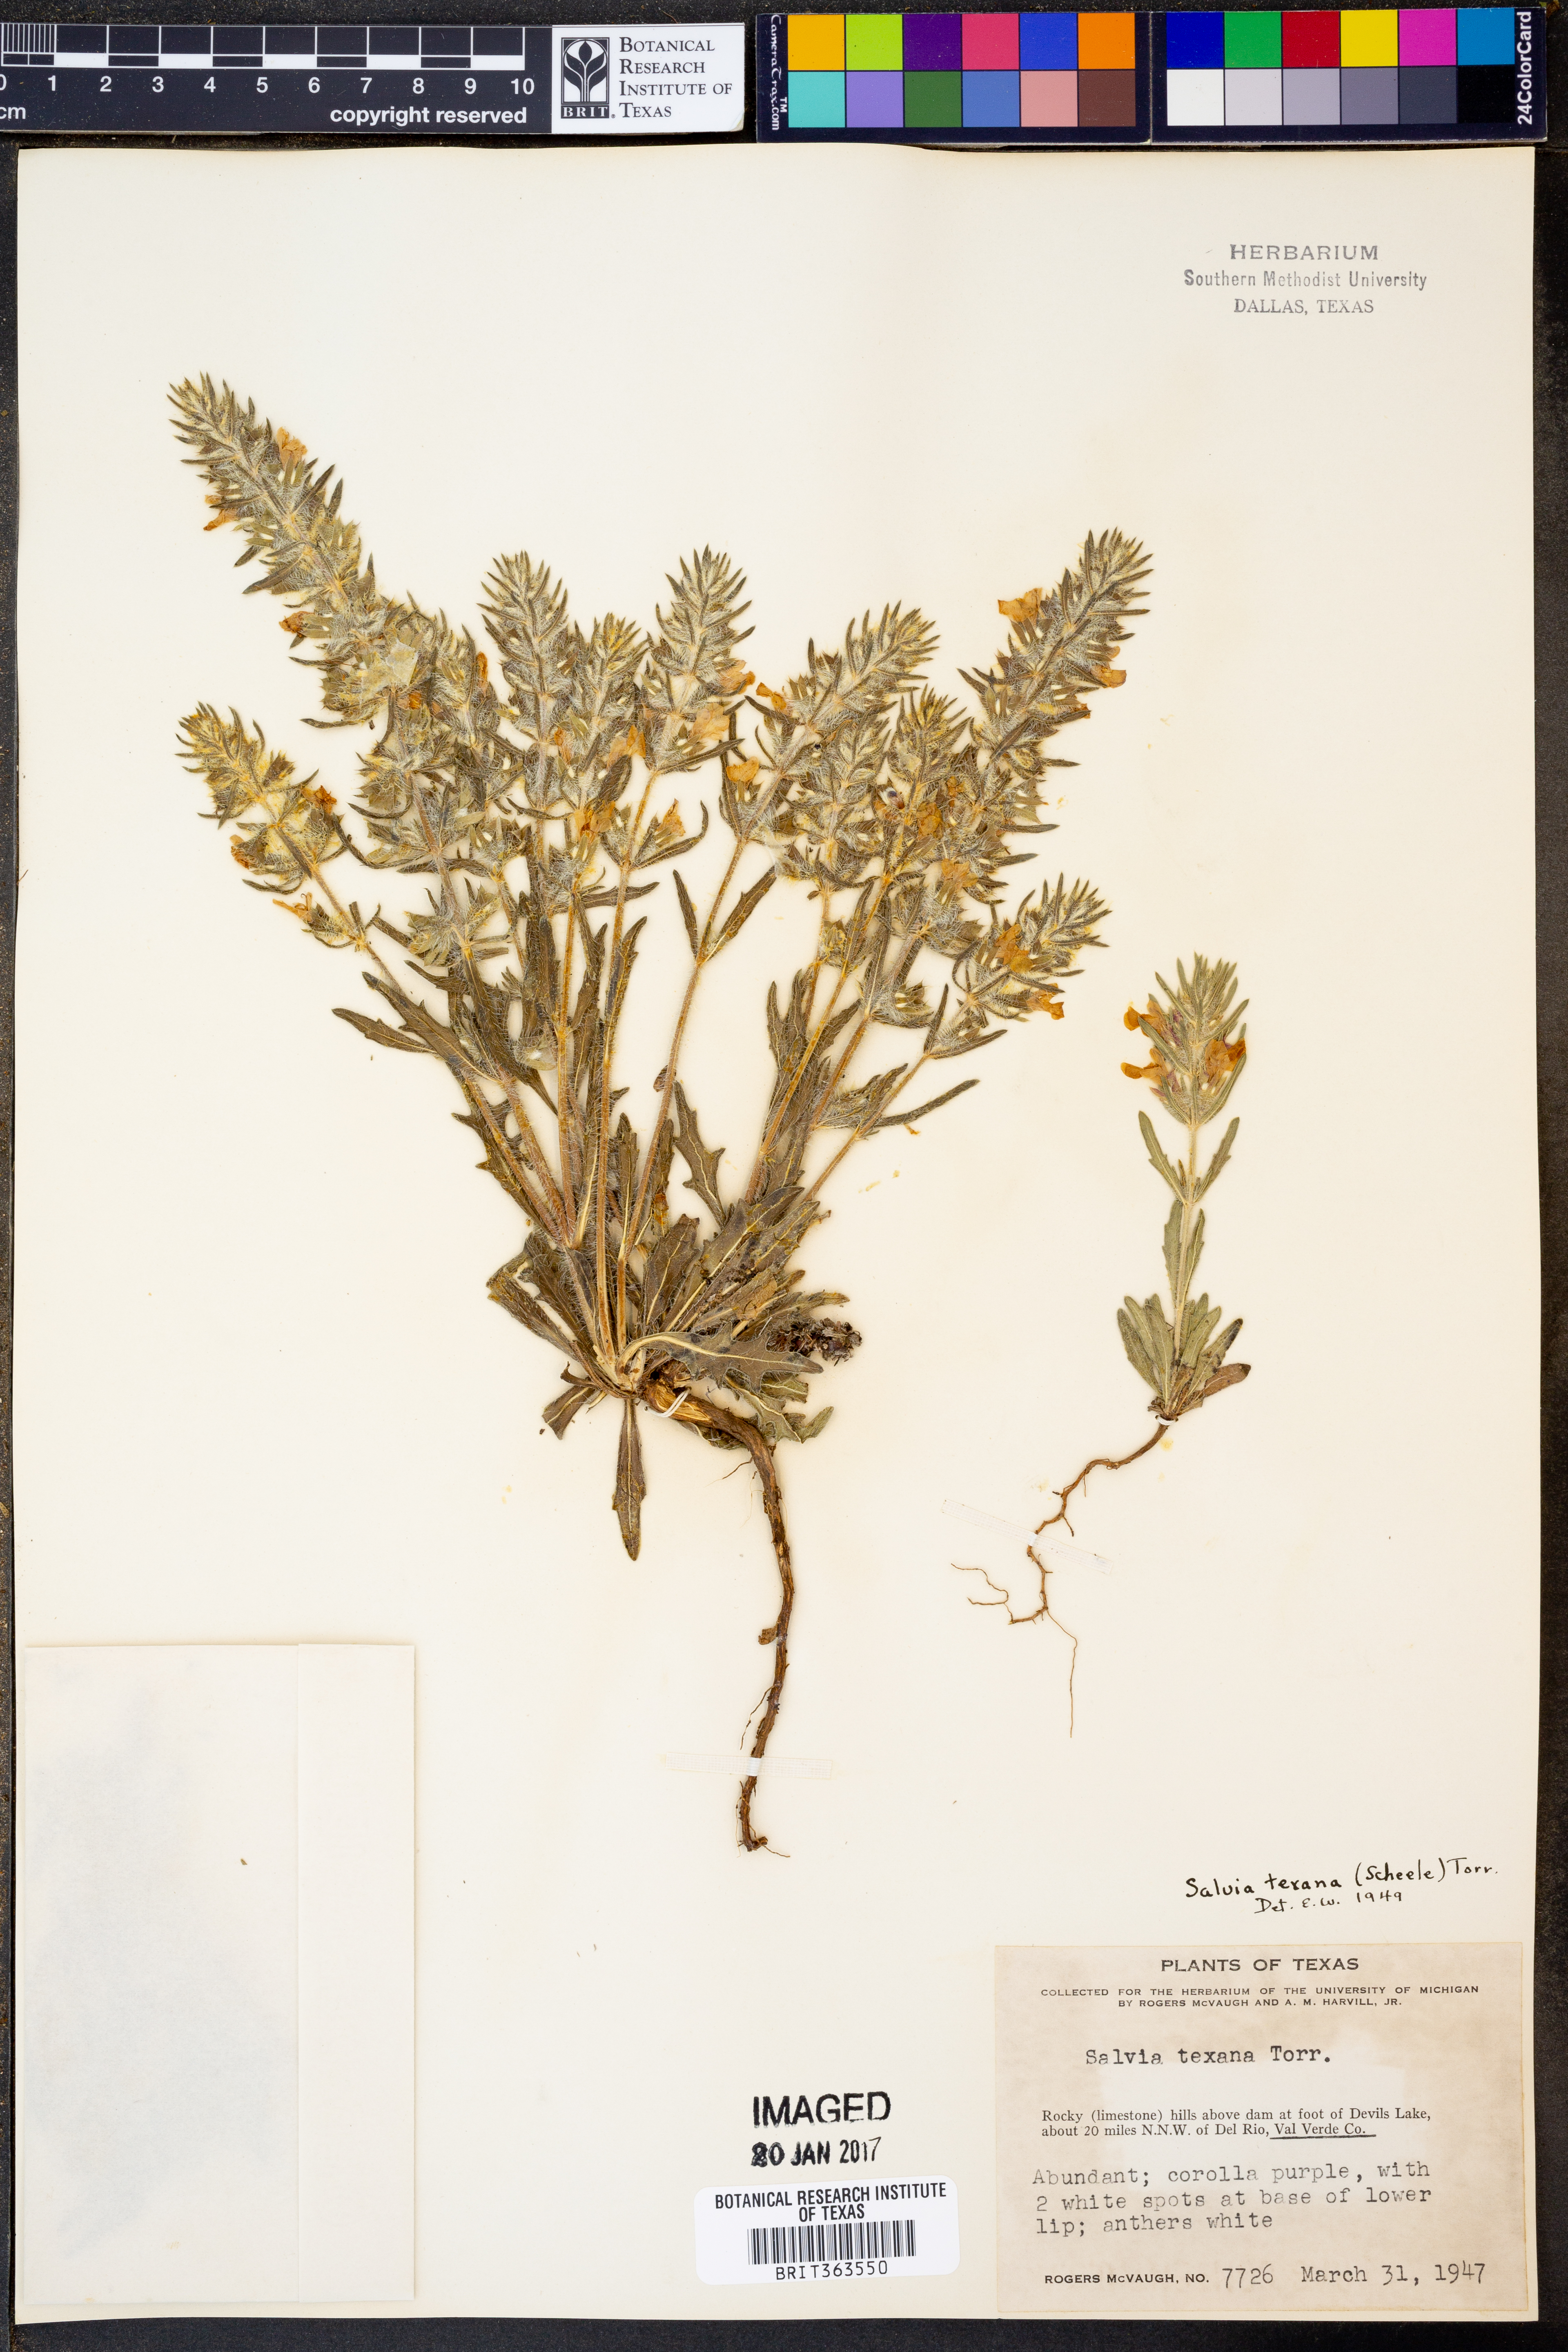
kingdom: Plantae
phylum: Tracheophyta
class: Magnoliopsida
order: Lamiales
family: Lamiaceae
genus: Salvia
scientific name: Salvia texana
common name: Texas sage
